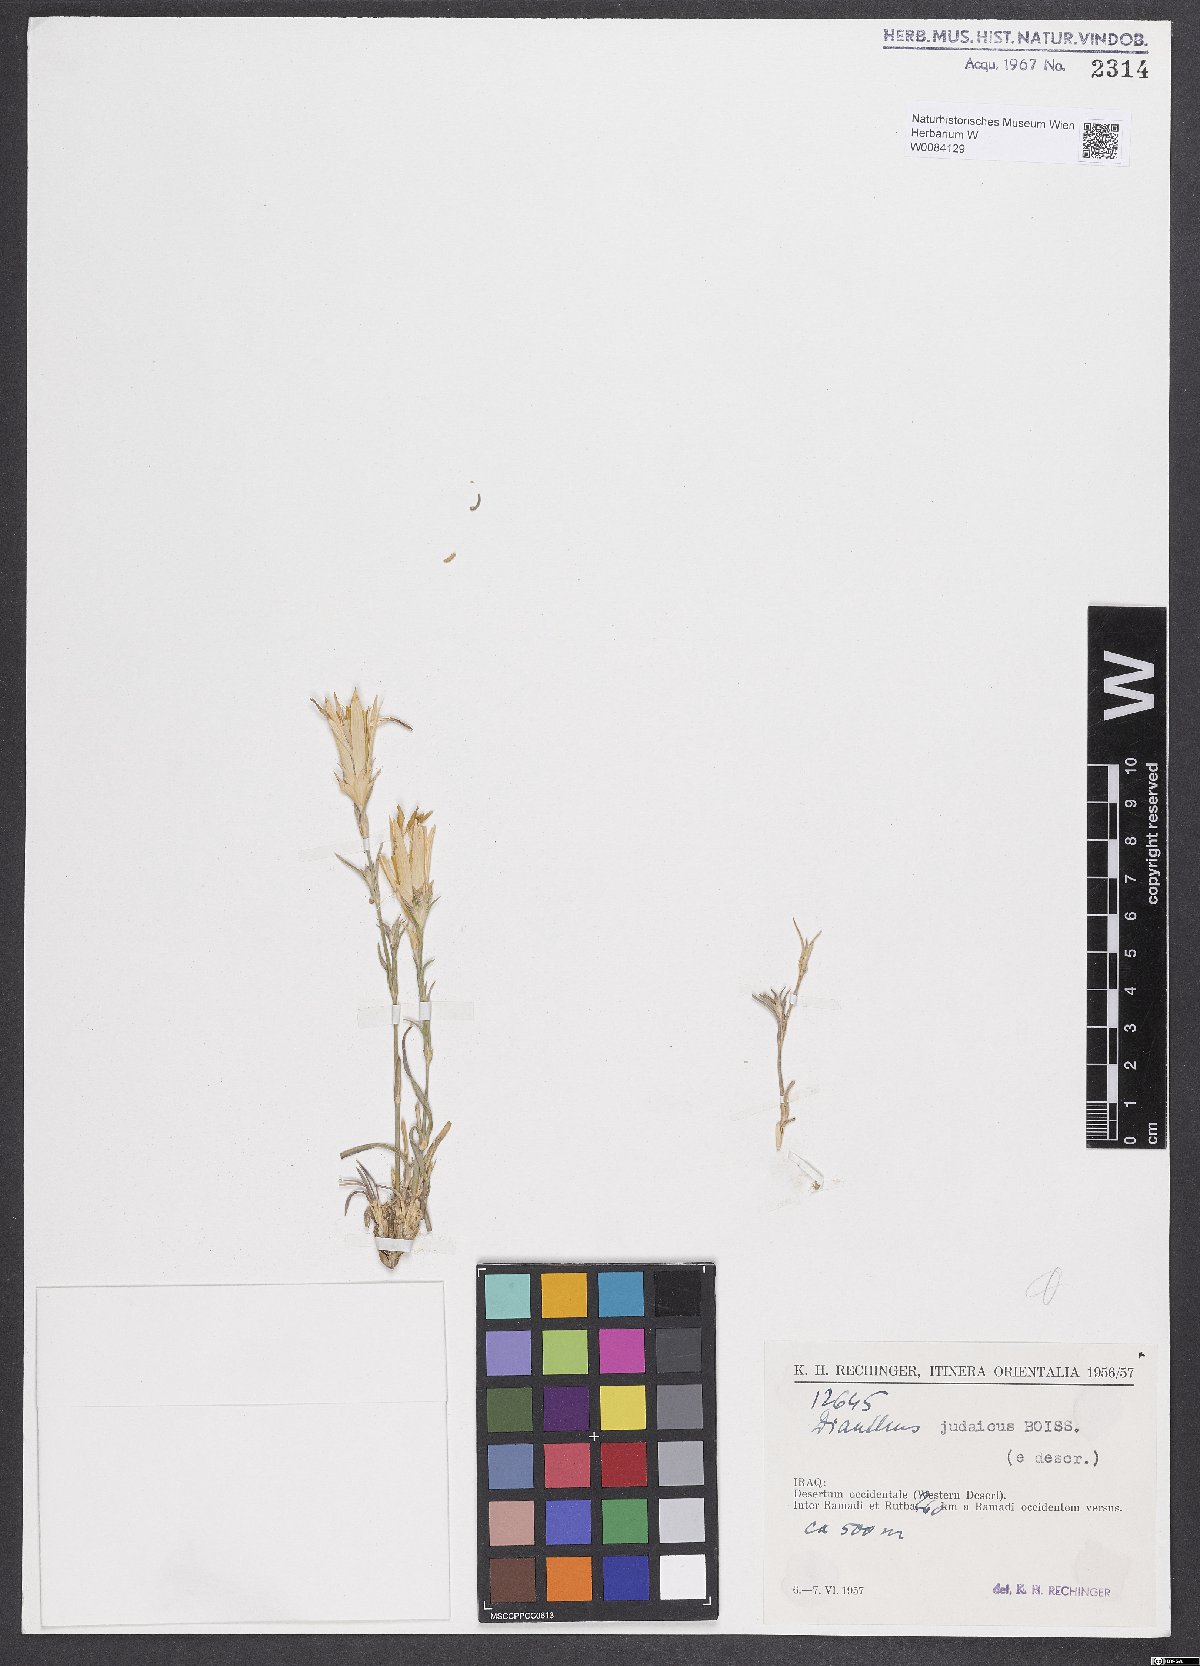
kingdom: Plantae
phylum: Tracheophyta
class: Magnoliopsida
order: Caryophyllales
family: Caryophyllaceae
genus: Dianthus
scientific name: Dianthus monadelphus
